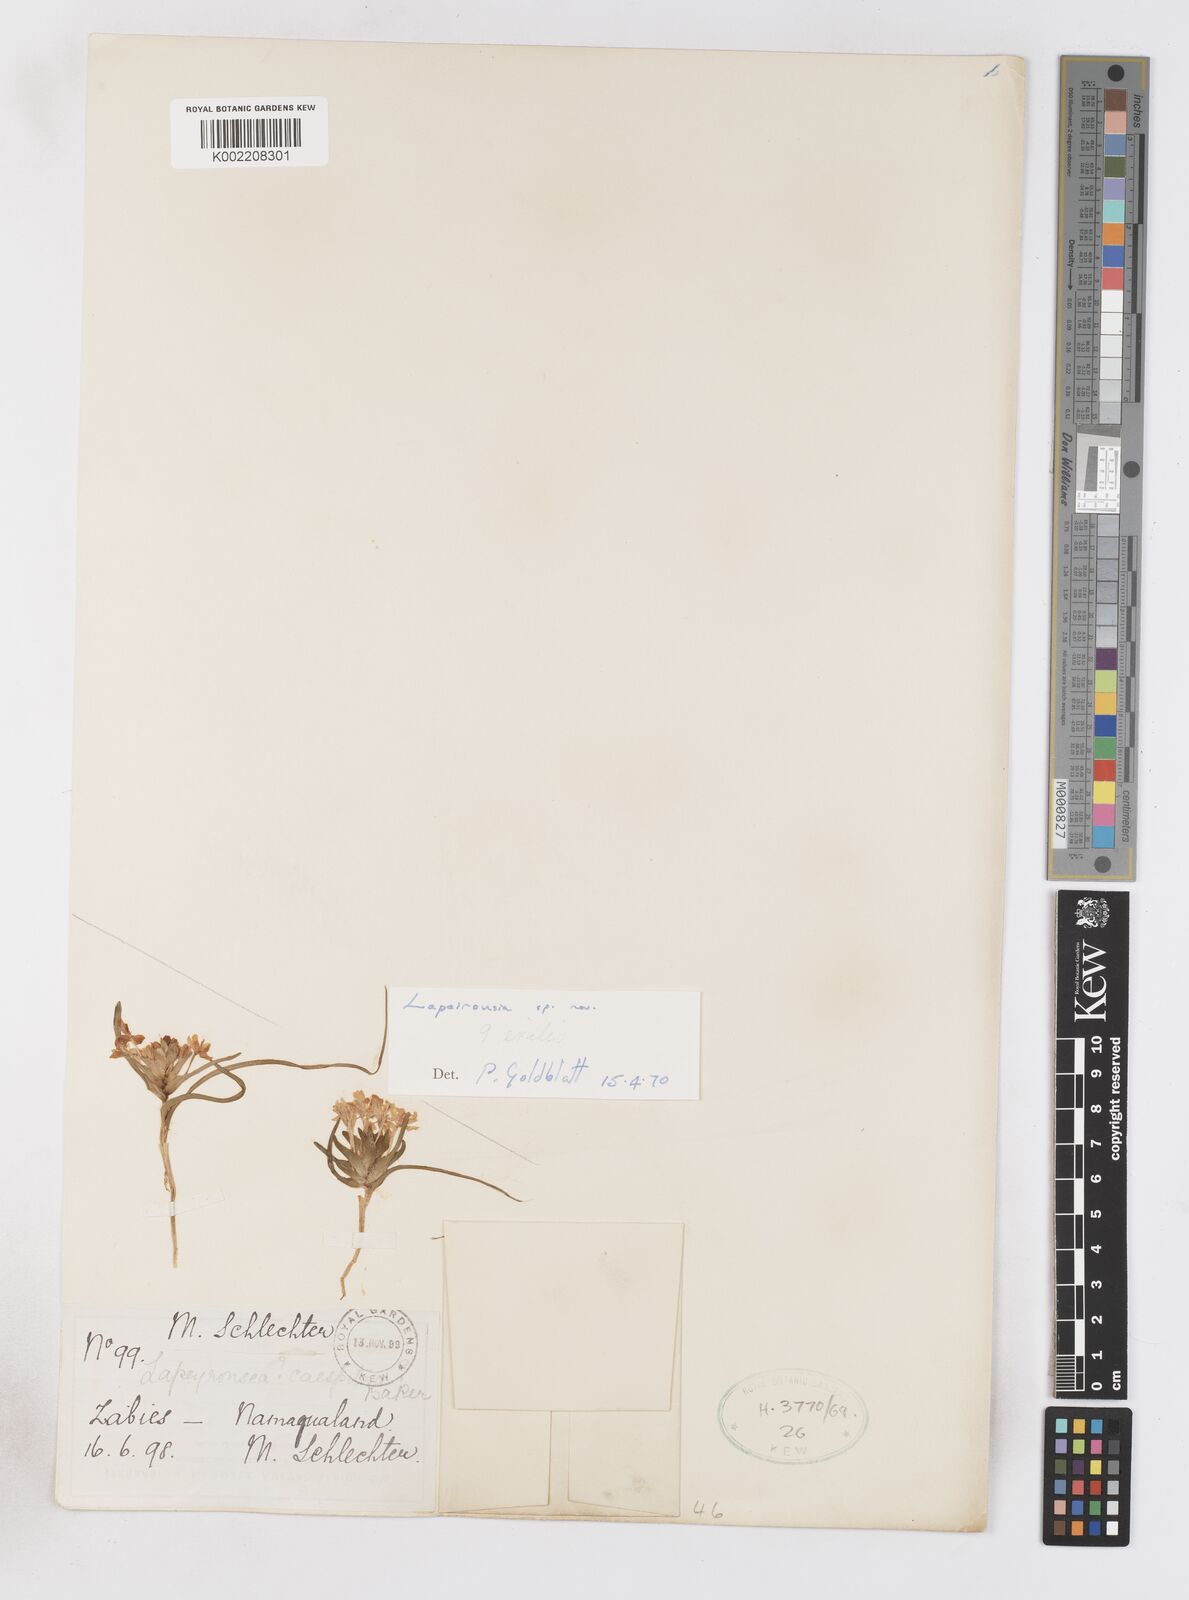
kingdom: Plantae
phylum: Tracheophyta
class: Liliopsida
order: Asparagales
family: Iridaceae
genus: Lapeirousia
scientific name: Lapeirousia exilis
